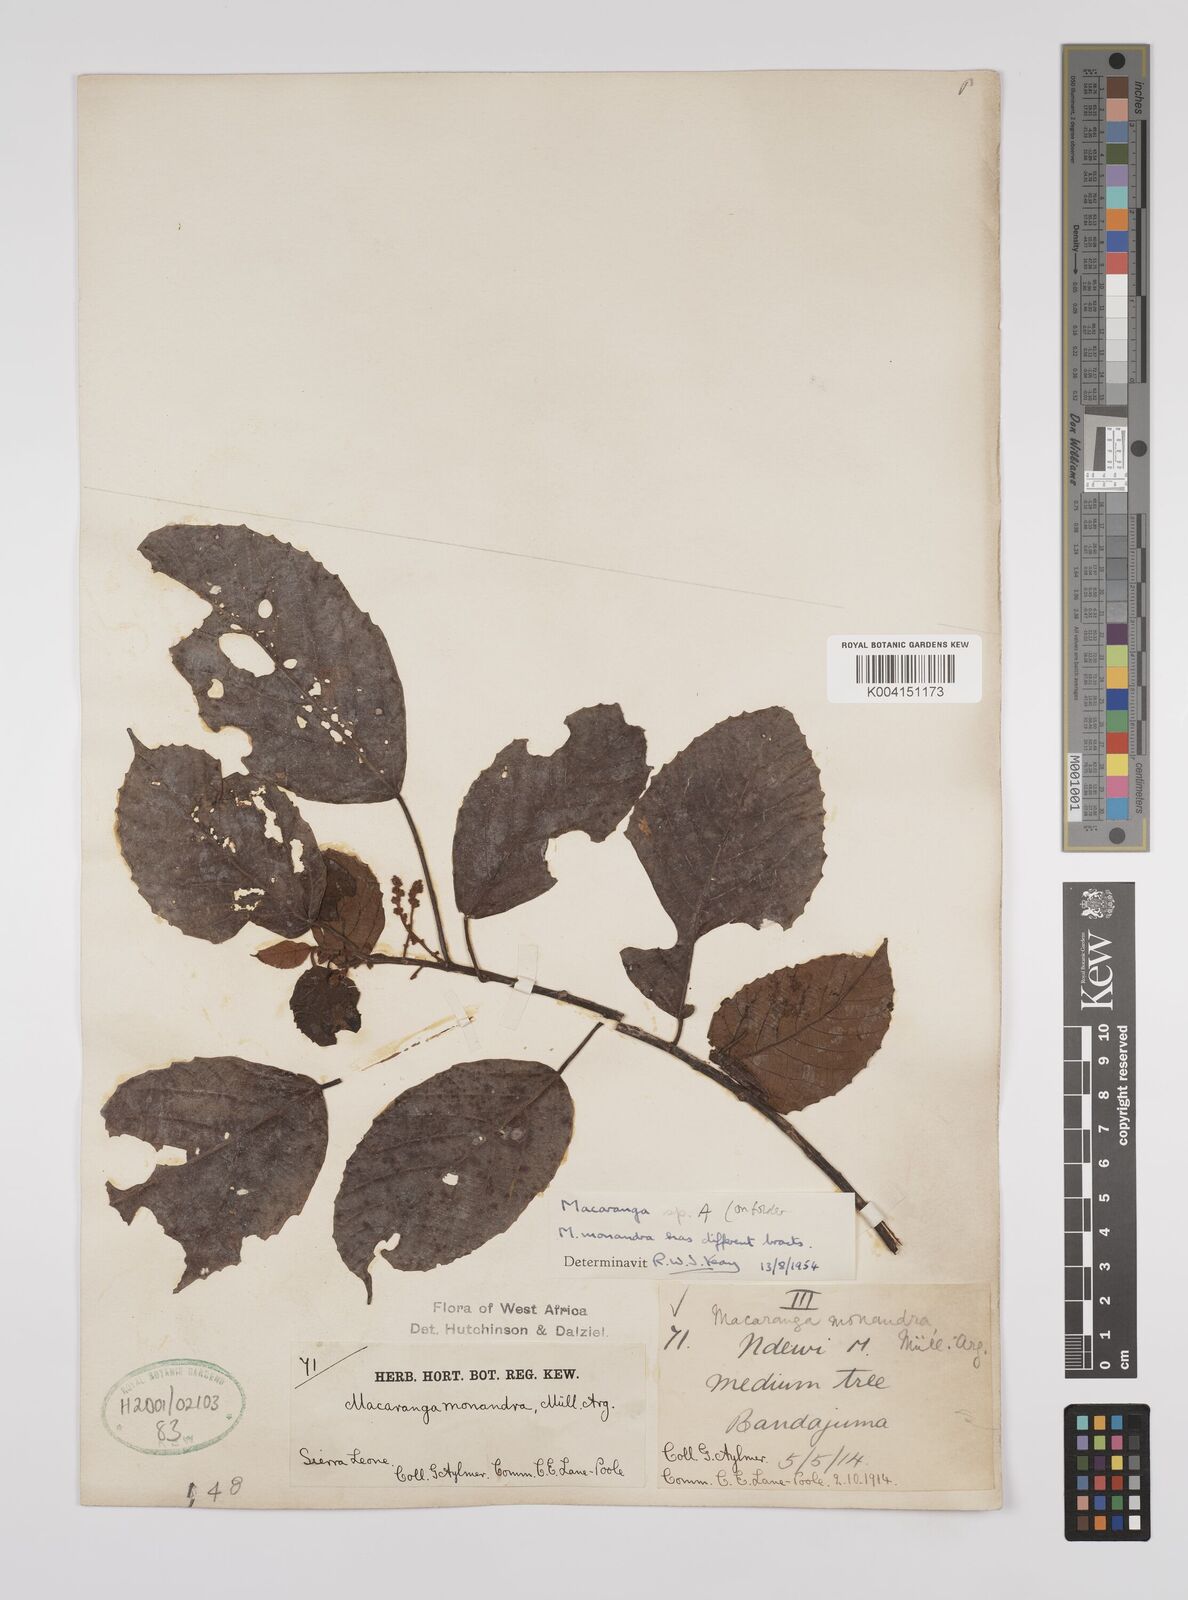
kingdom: Plantae
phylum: Tracheophyta
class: Magnoliopsida
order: Malpighiales
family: Euphorbiaceae
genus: Macaranga
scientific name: Macaranga
